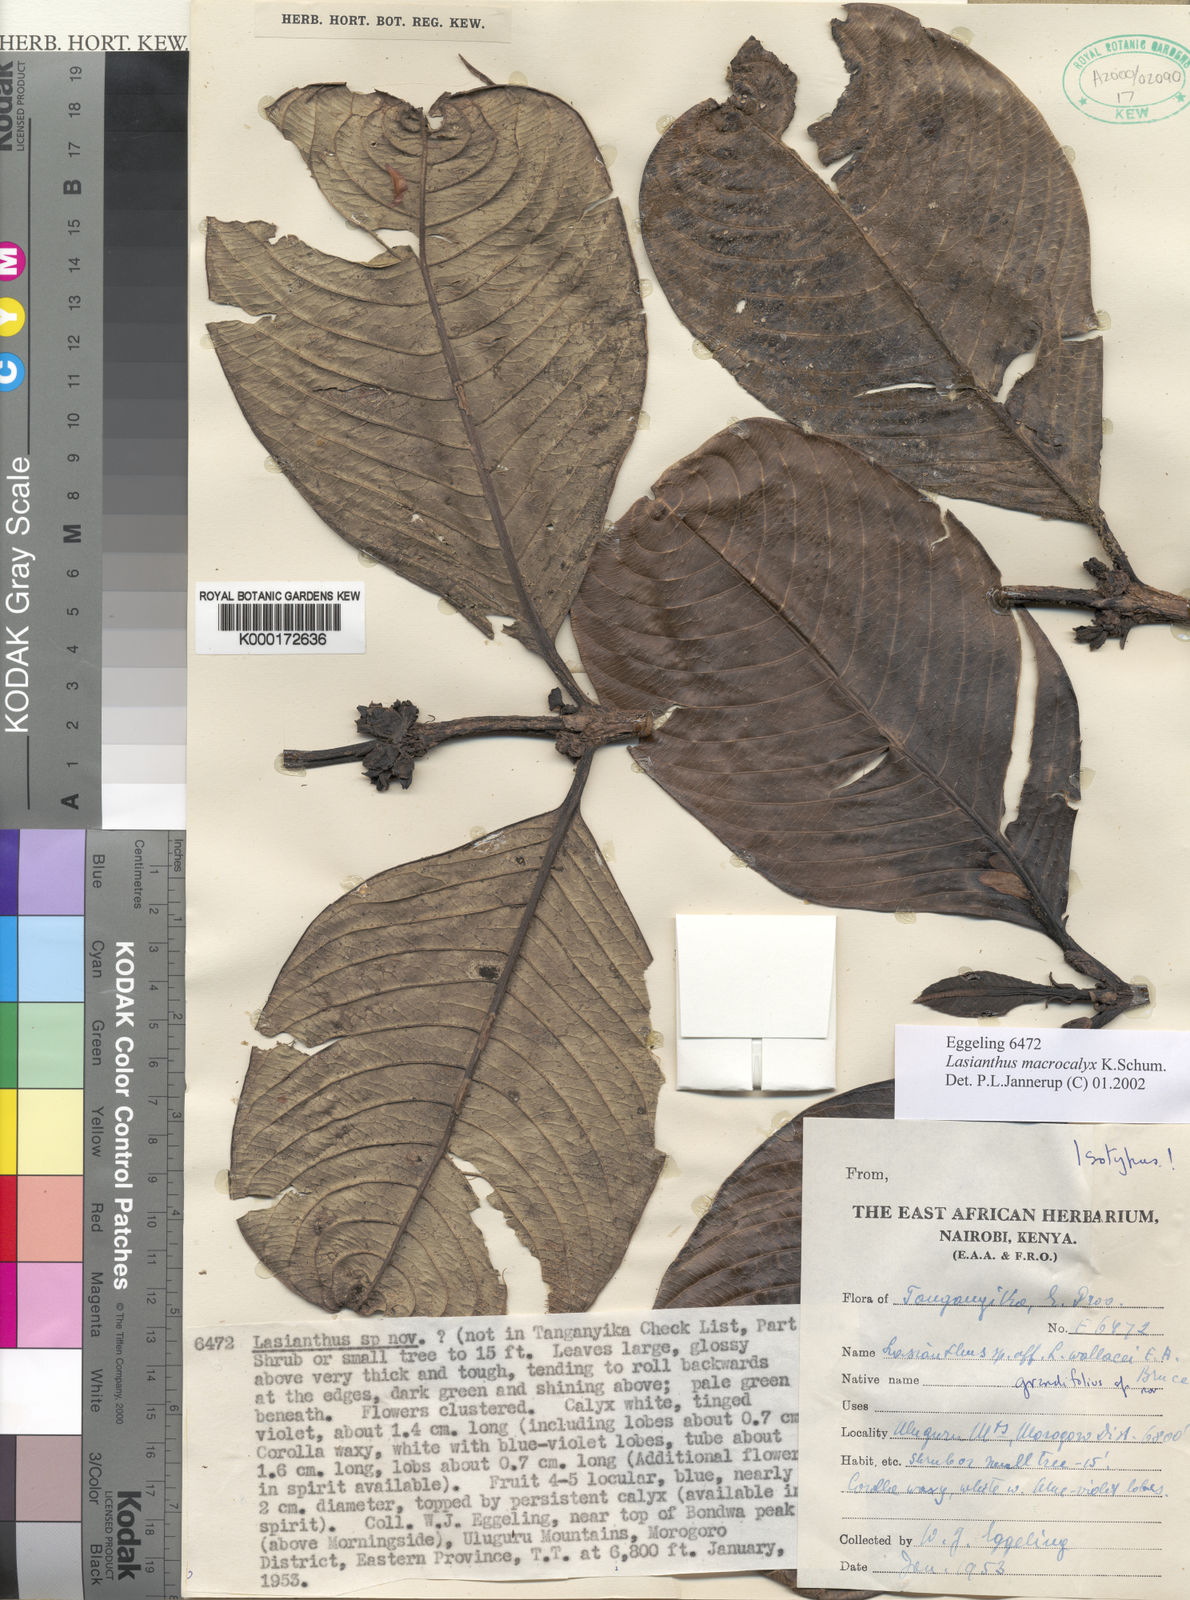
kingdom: Plantae
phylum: Tracheophyta
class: Magnoliopsida
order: Gentianales
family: Rubiaceae
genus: Lasianthus
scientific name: Lasianthus macrocalyx
